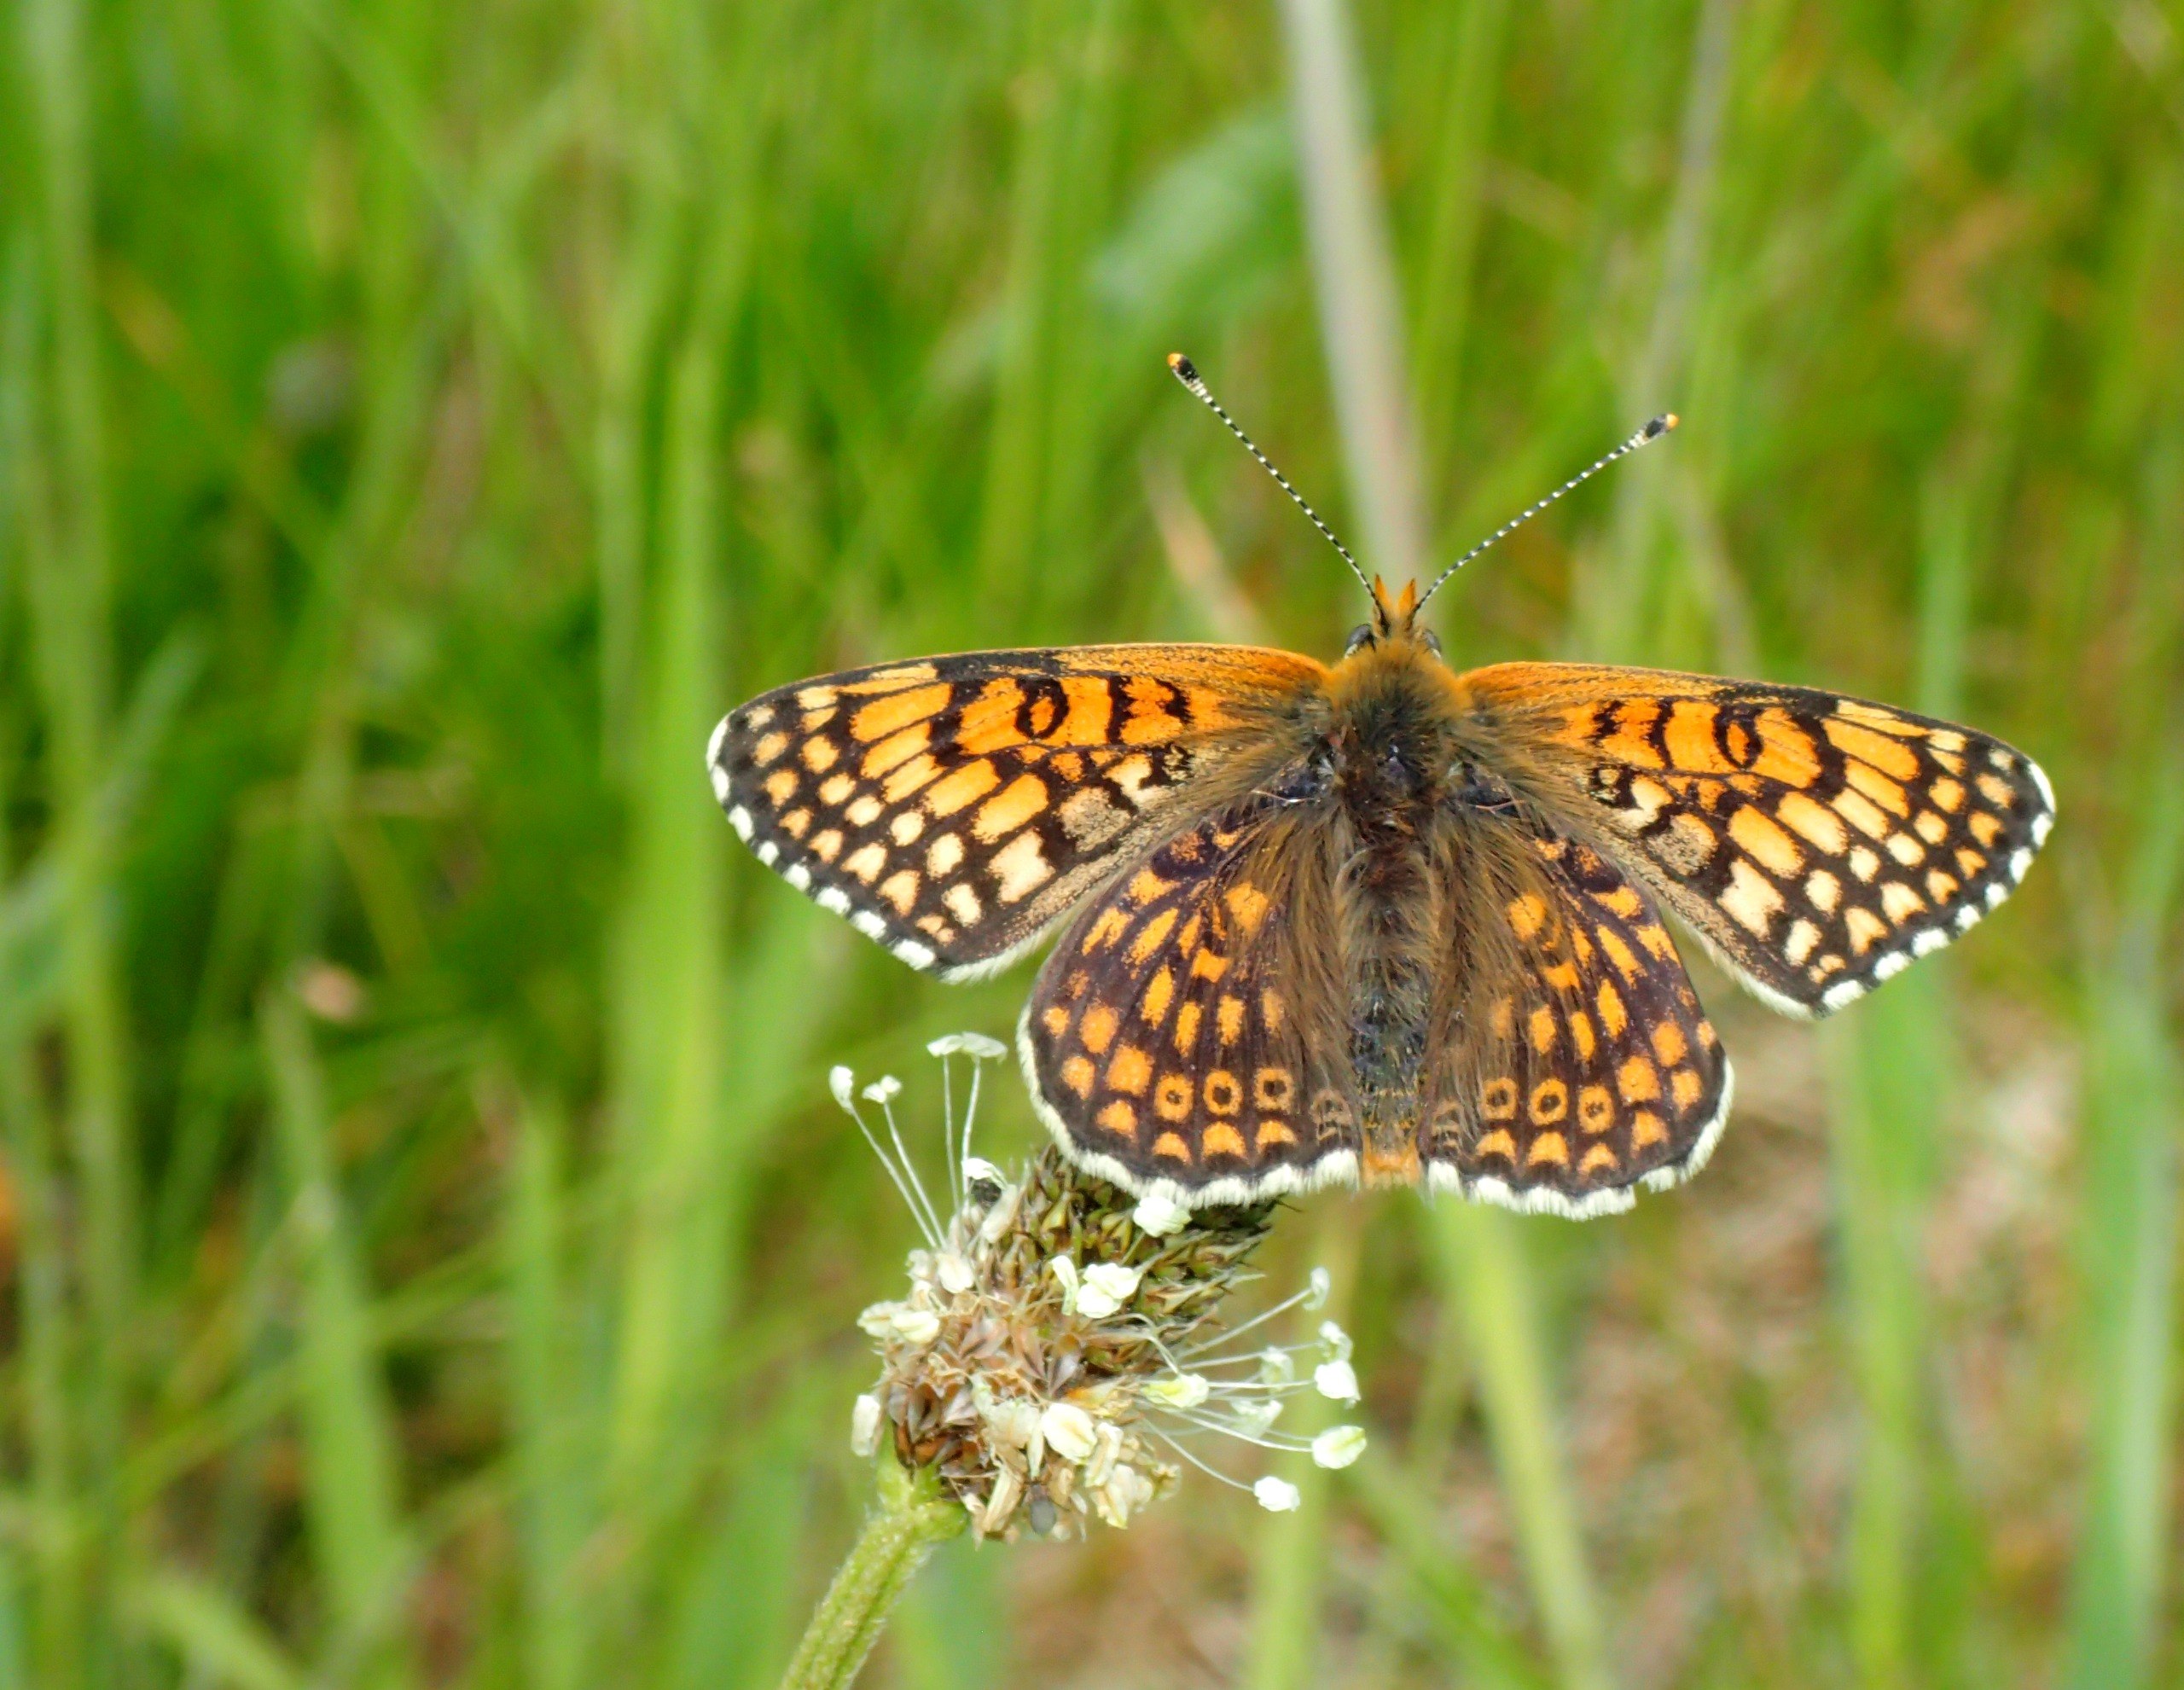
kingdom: Animalia
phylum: Arthropoda
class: Insecta
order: Lepidoptera
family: Nymphalidae
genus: Melitaea
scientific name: Melitaea cinxia
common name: Okkergul pletvinge
